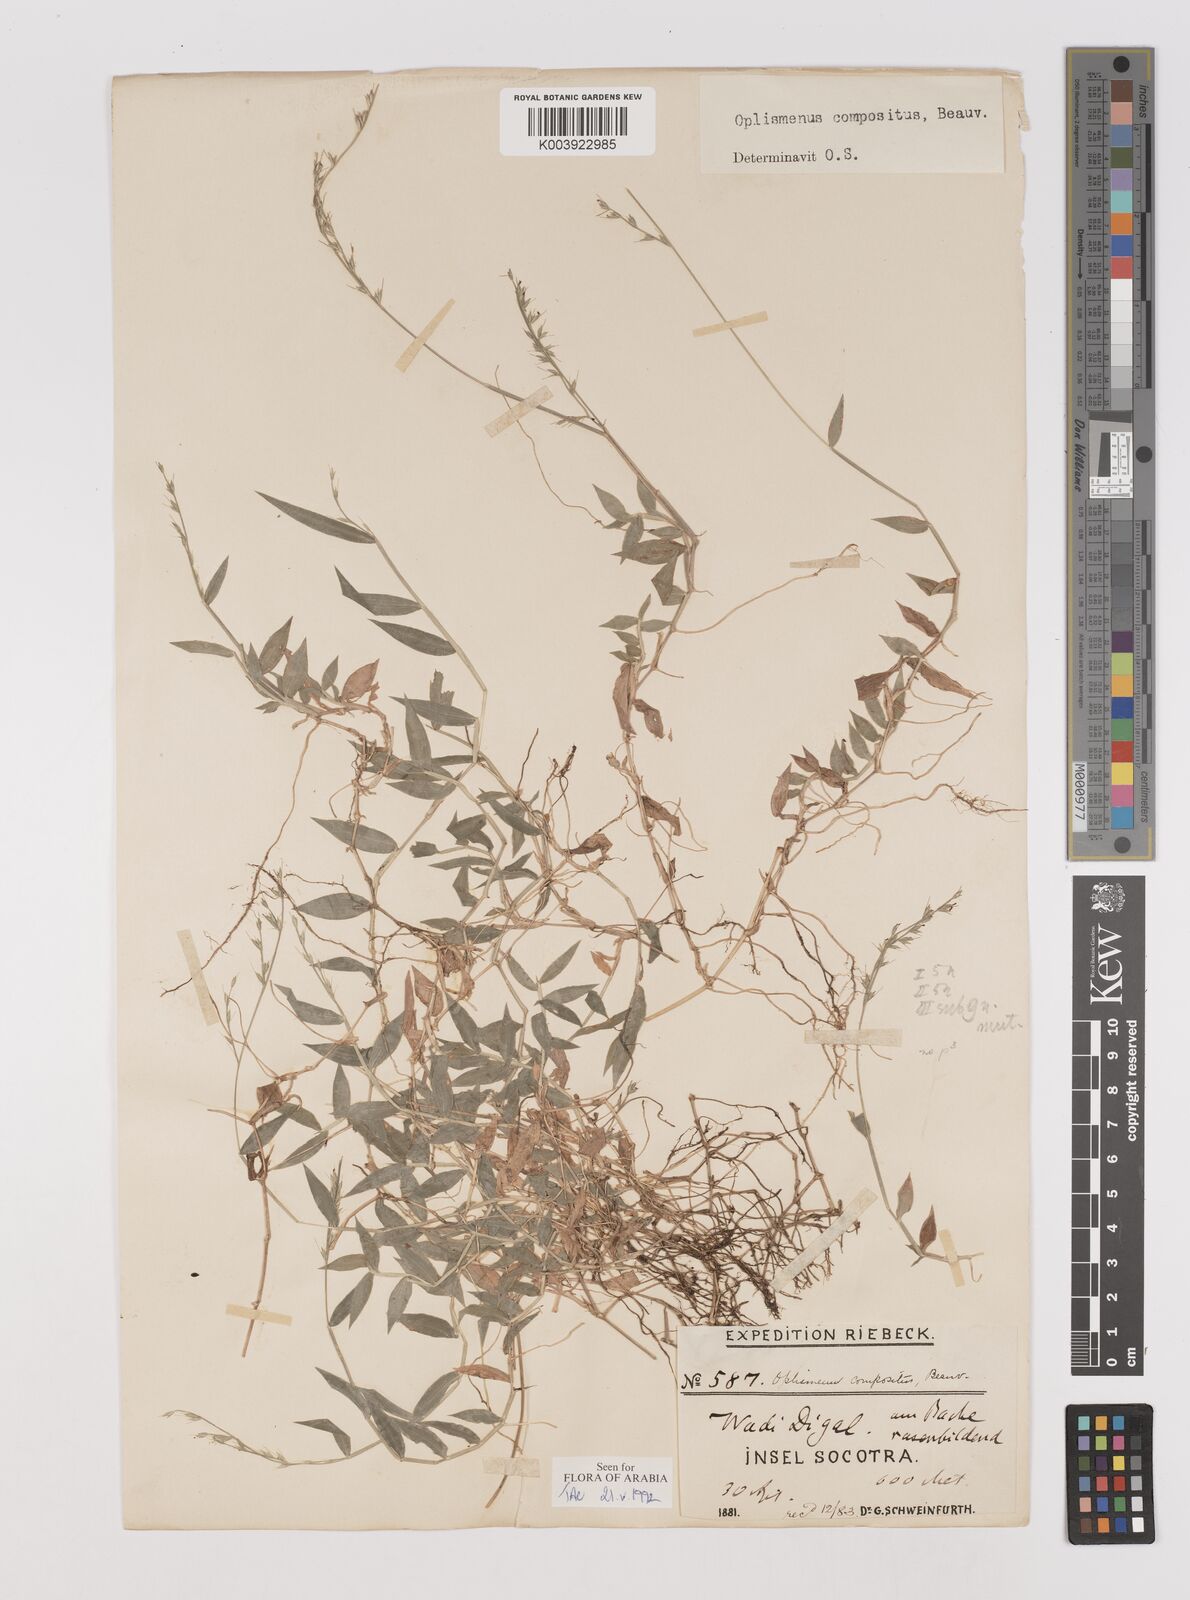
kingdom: Plantae
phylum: Tracheophyta
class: Liliopsida
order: Poales
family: Poaceae
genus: Oplismenus
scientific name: Oplismenus compositus
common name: Running mountain grass
